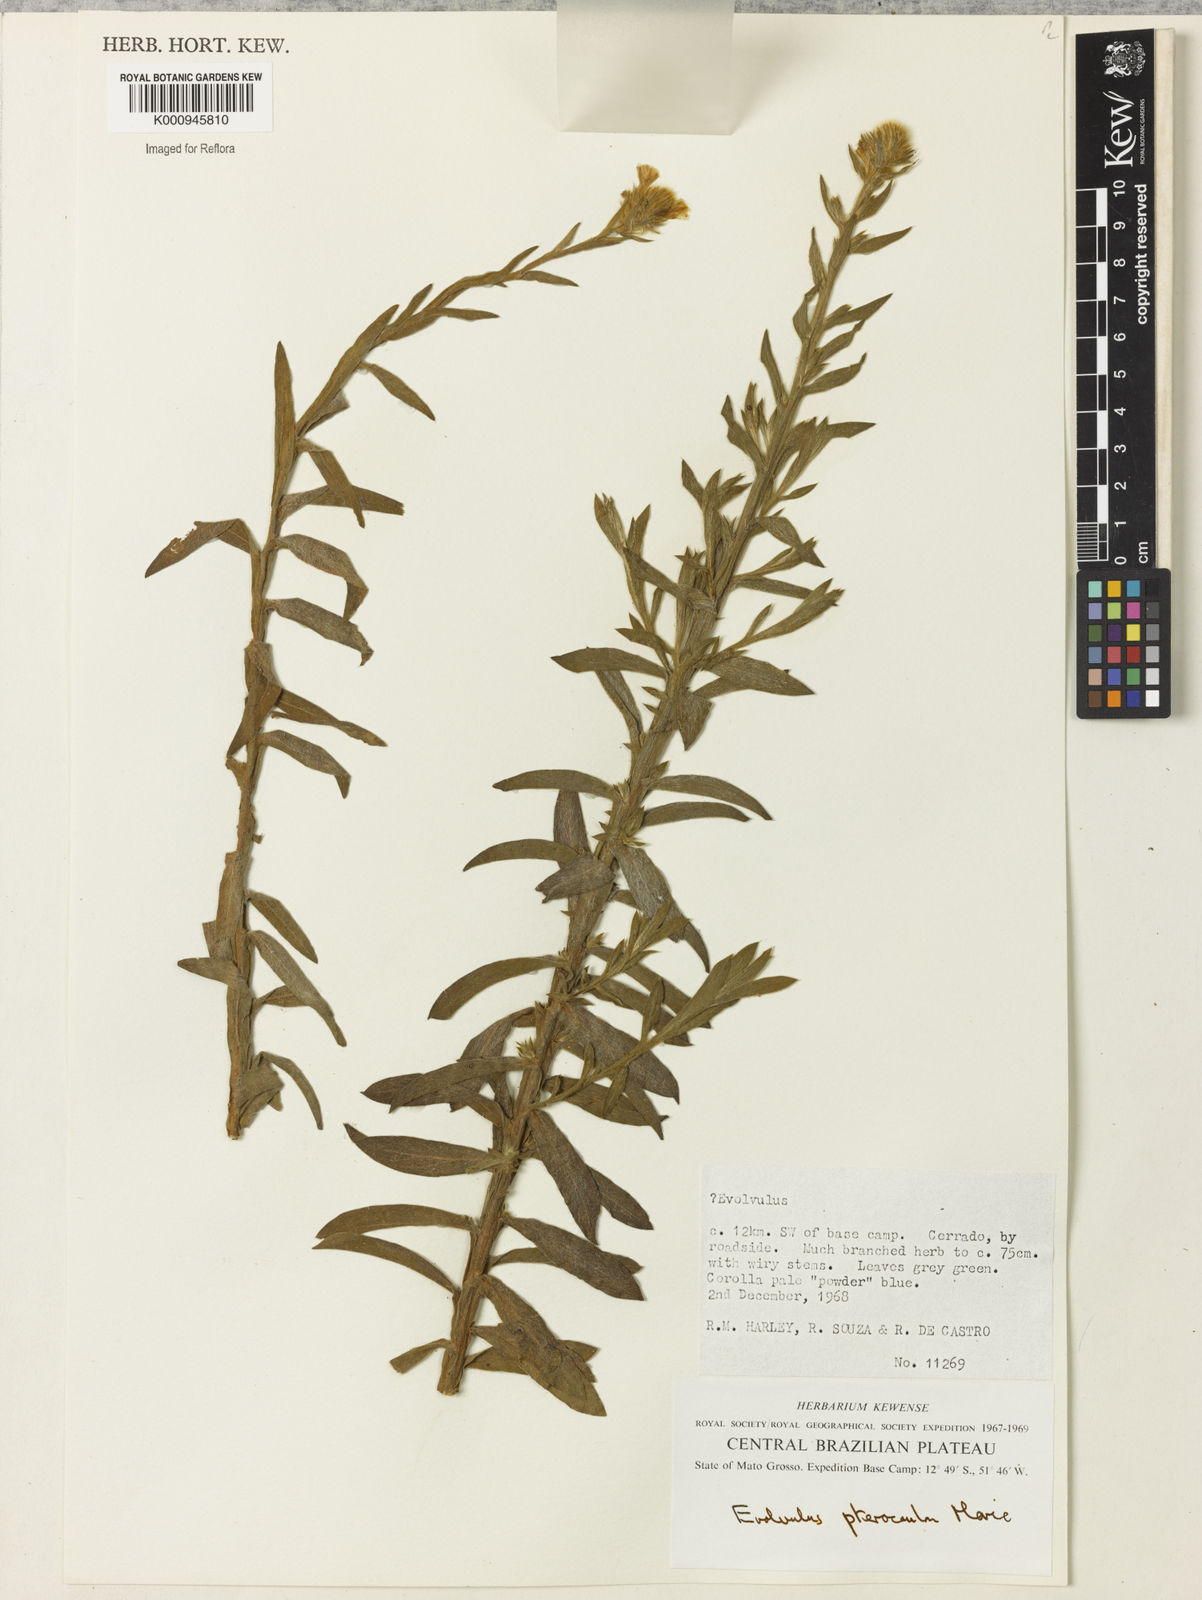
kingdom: Plantae
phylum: Tracheophyta
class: Magnoliopsida
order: Solanales
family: Convolvulaceae
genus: Evolvulus
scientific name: Evolvulus pterocaulon
